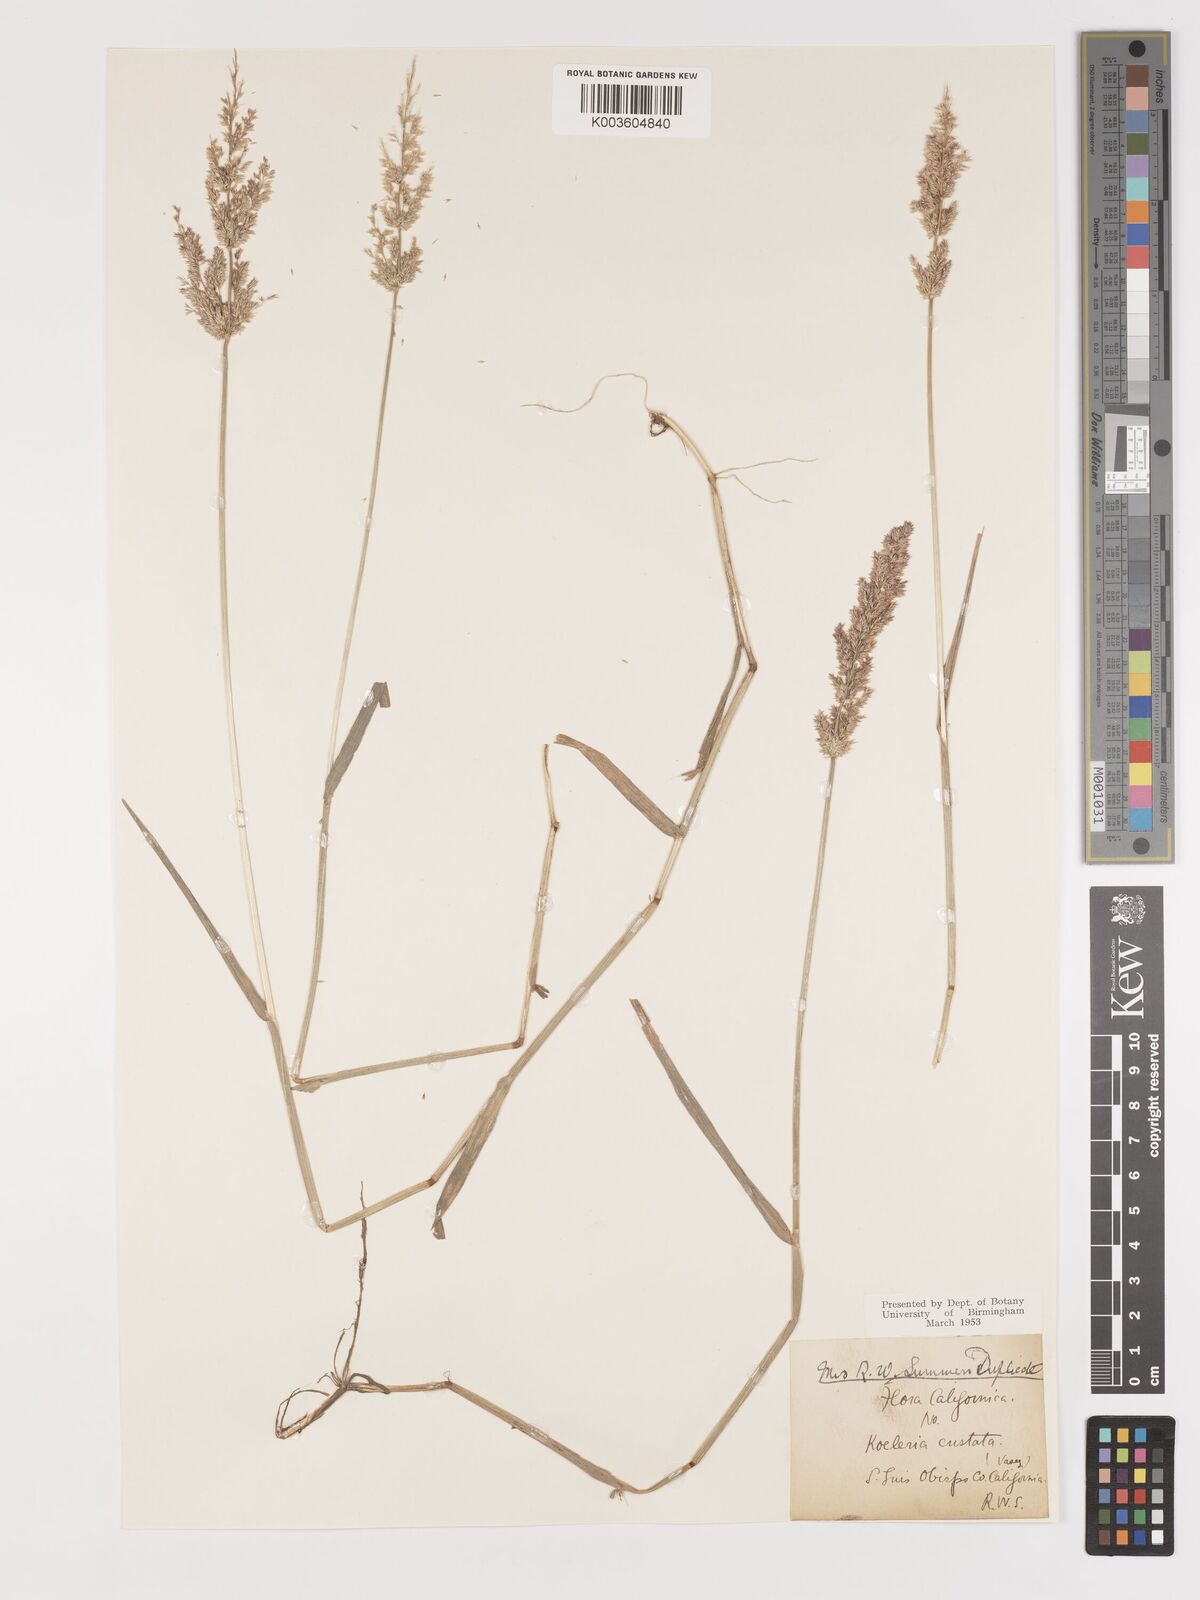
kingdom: Plantae
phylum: Tracheophyta
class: Liliopsida
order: Poales
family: Poaceae
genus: Agrostis
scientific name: Agrostis
